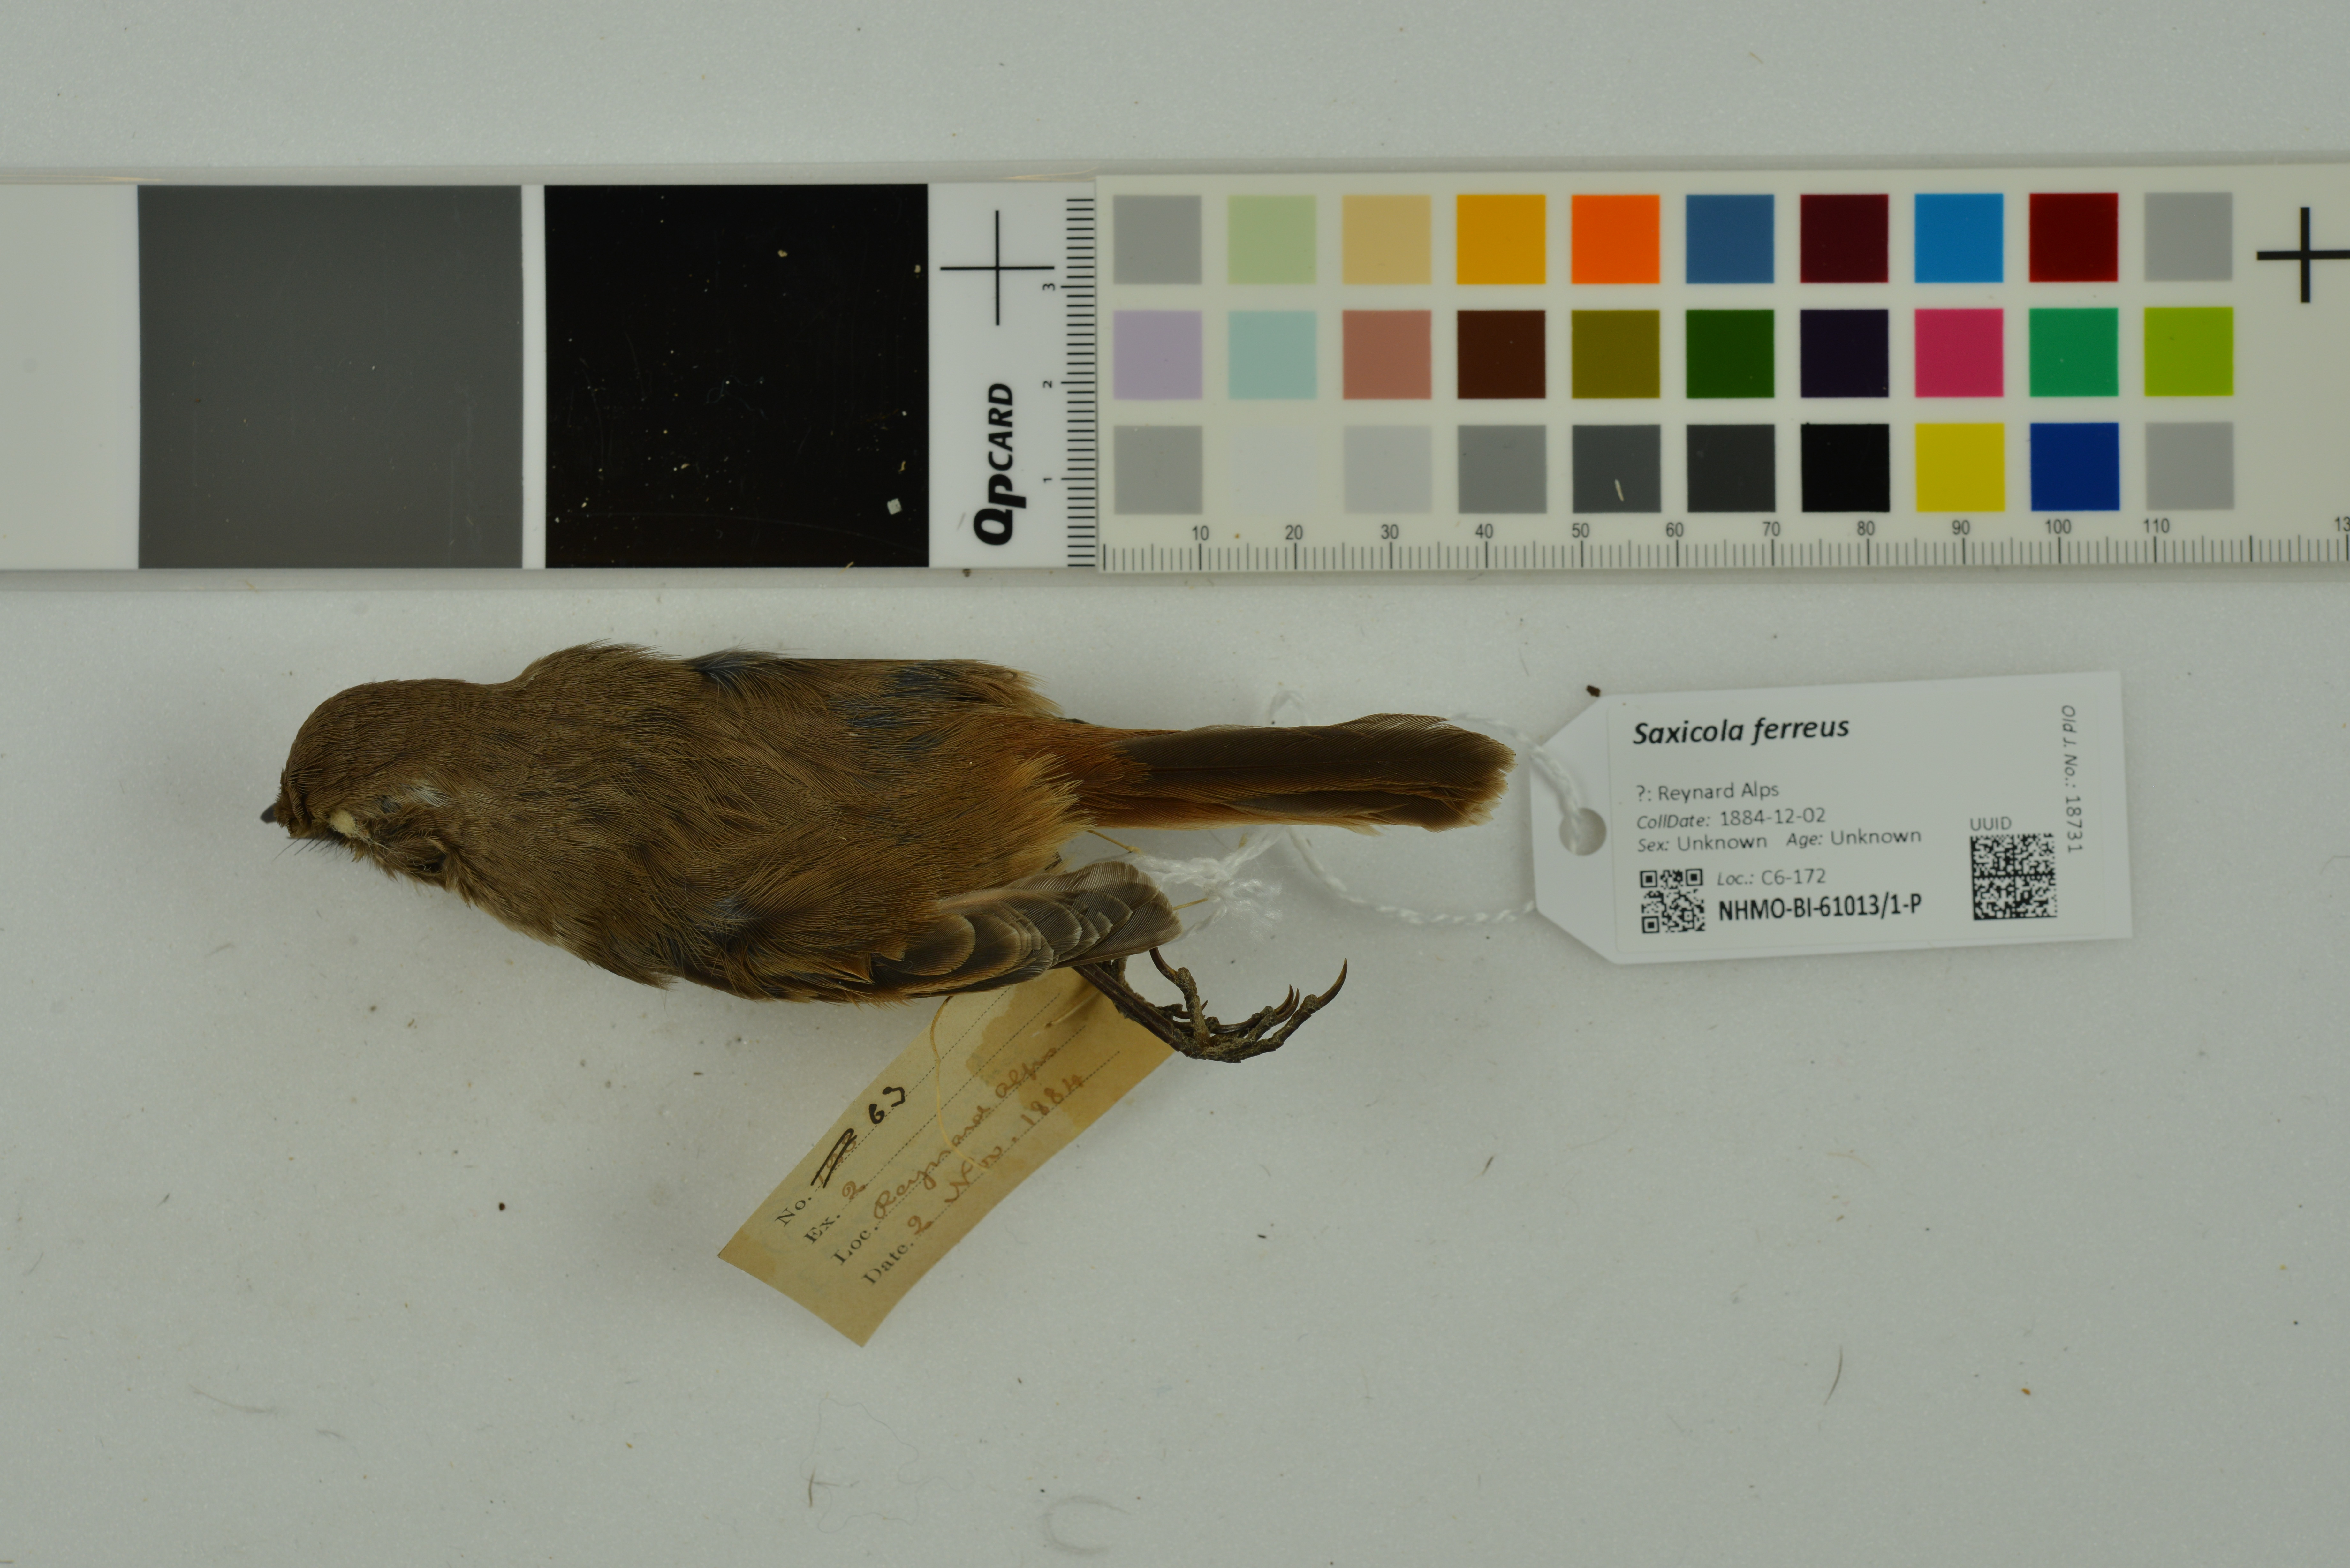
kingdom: Animalia
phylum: Chordata
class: Aves
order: Passeriformes
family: Muscicapidae
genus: Saxicola
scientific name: Saxicola ferreus
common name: Grey bush chat
